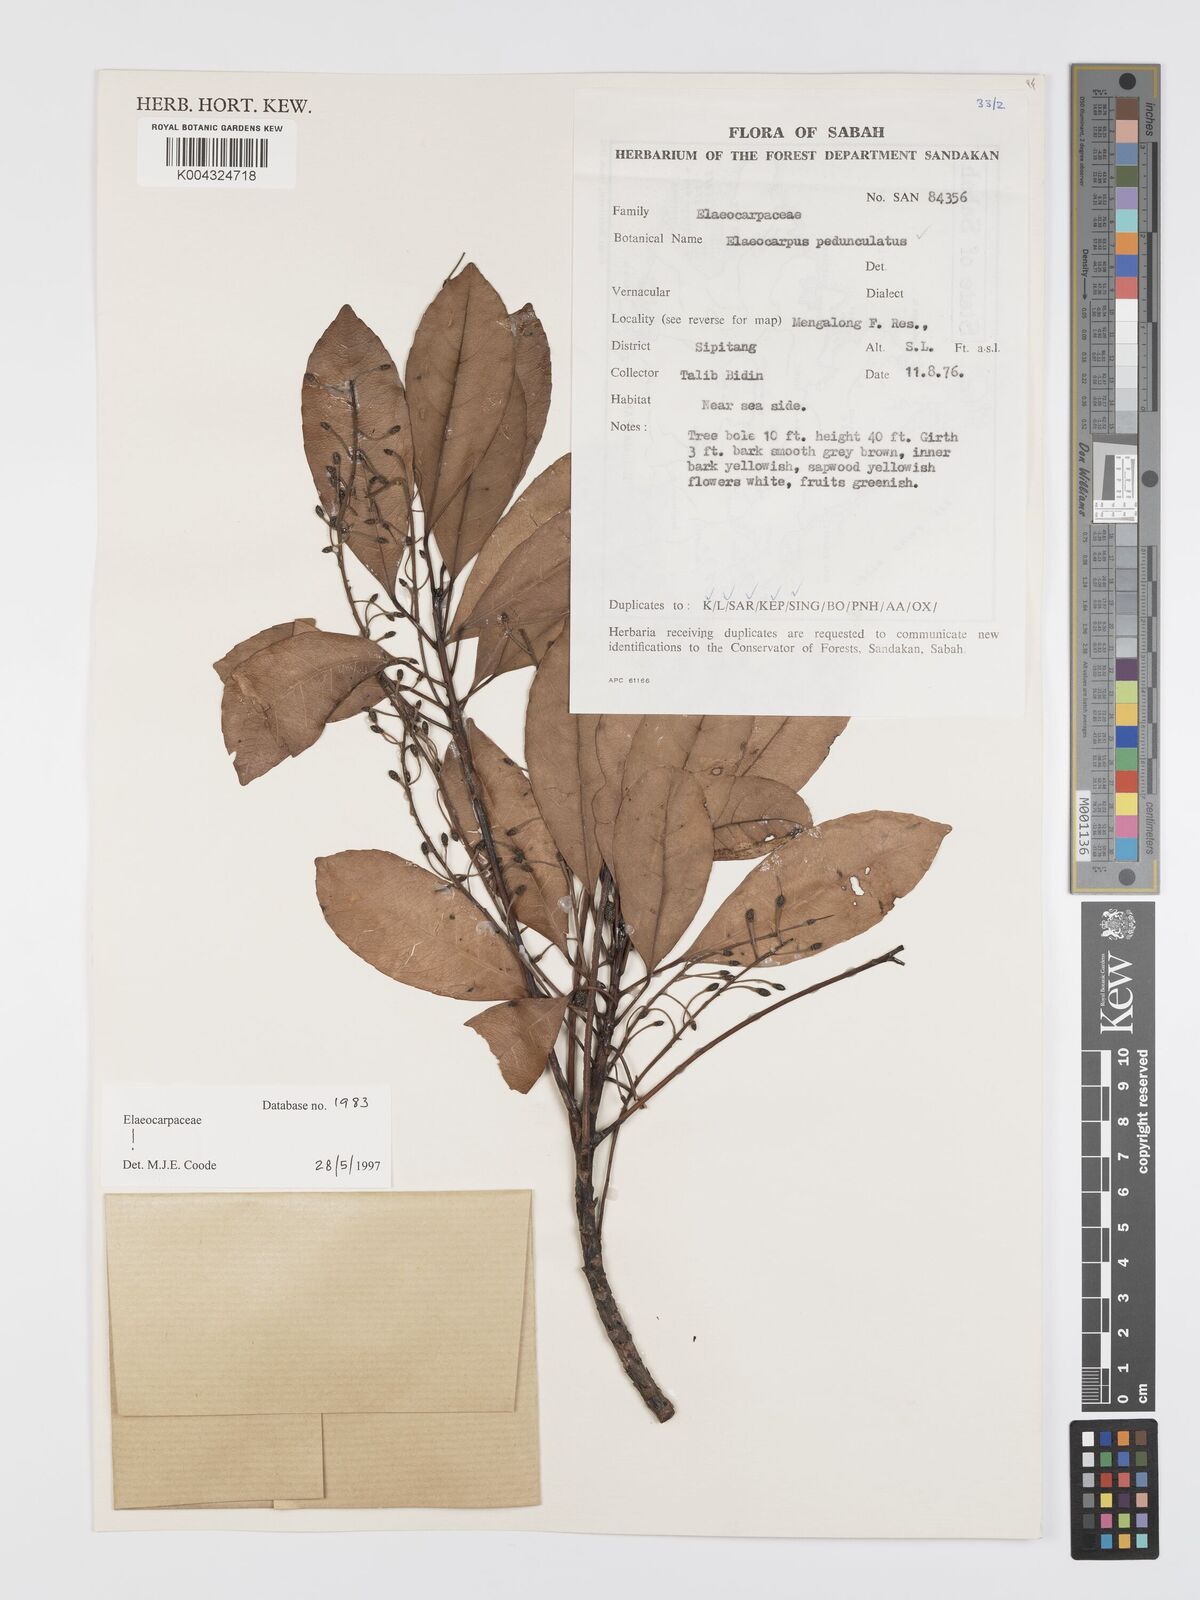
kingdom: Plantae
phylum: Tracheophyta
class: Magnoliopsida
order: Oxalidales
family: Elaeocarpaceae
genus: Elaeocarpus
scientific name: Elaeocarpus pedunculatus
